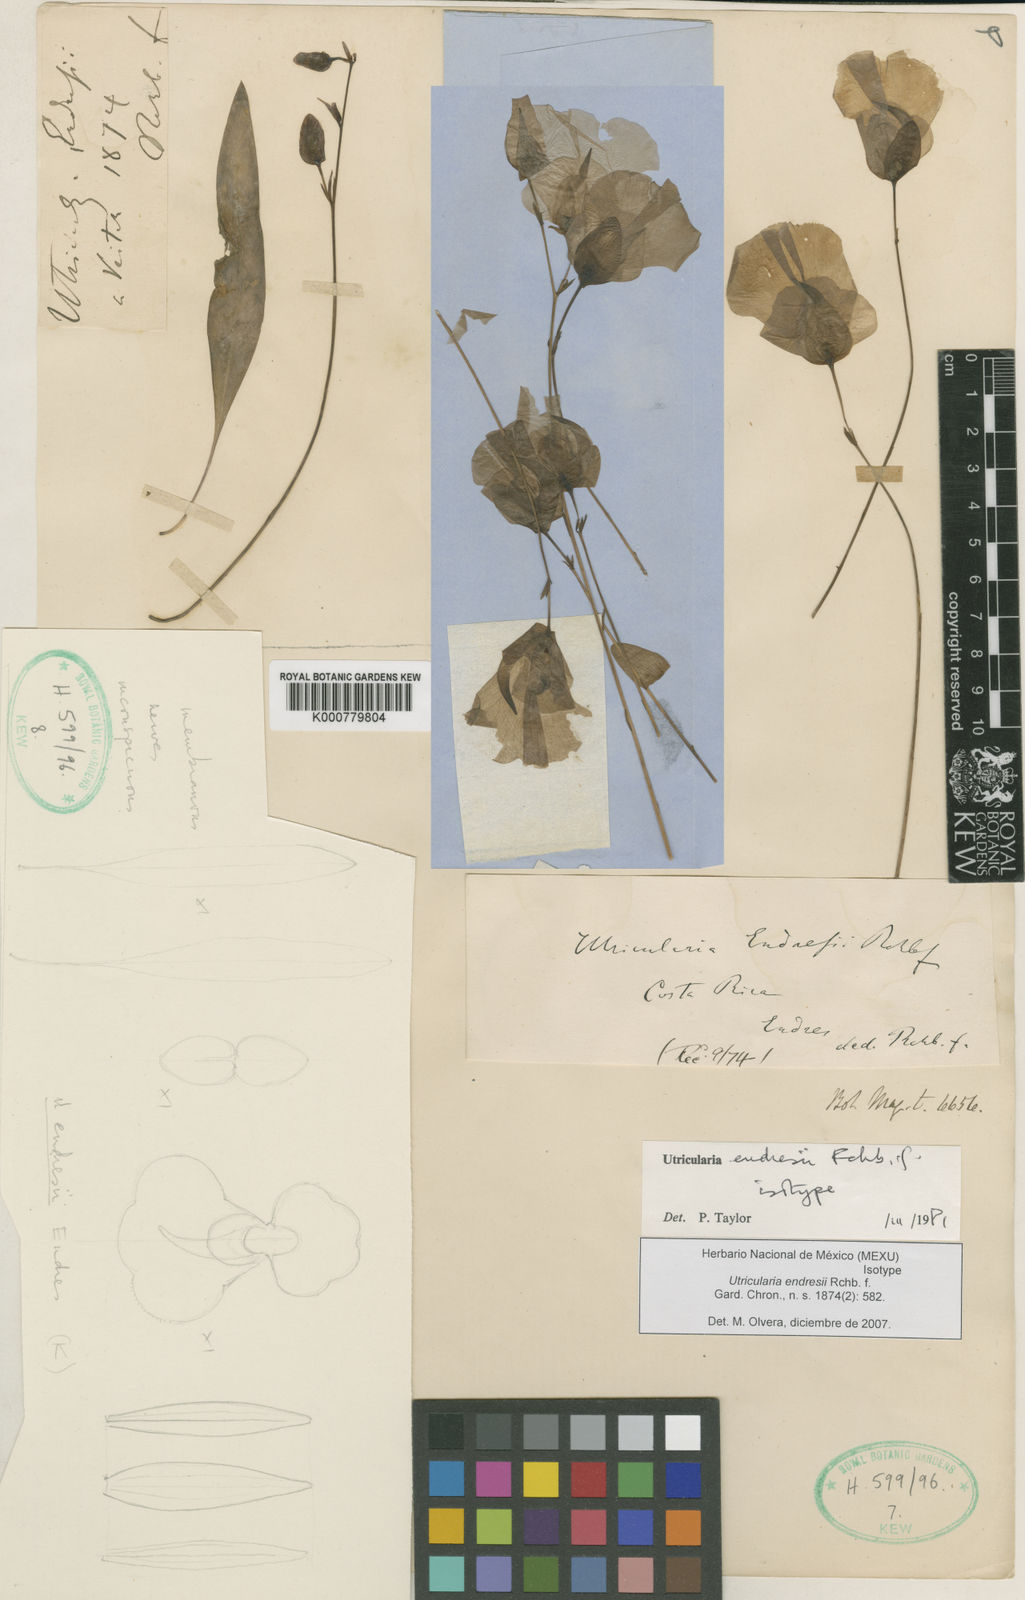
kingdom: Plantae
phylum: Tracheophyta
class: Magnoliopsida
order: Lamiales
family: Lentibulariaceae
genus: Utricularia
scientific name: Utricularia endresii
